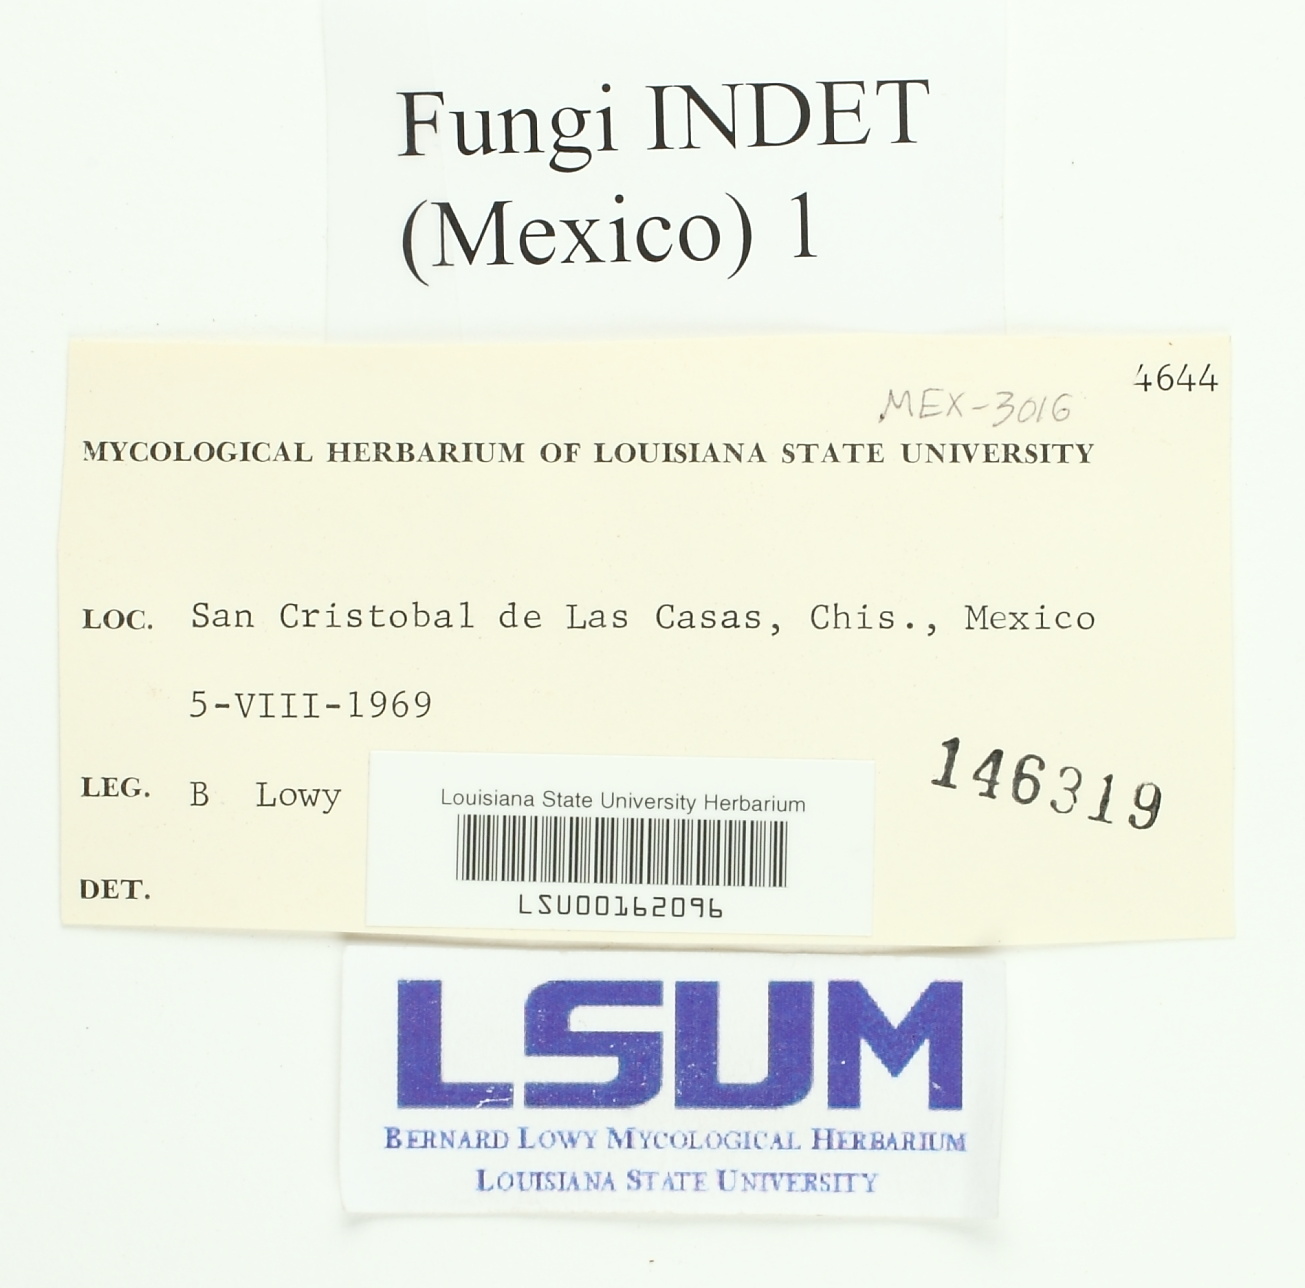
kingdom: Fungi
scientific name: Fungi
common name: Fungi
